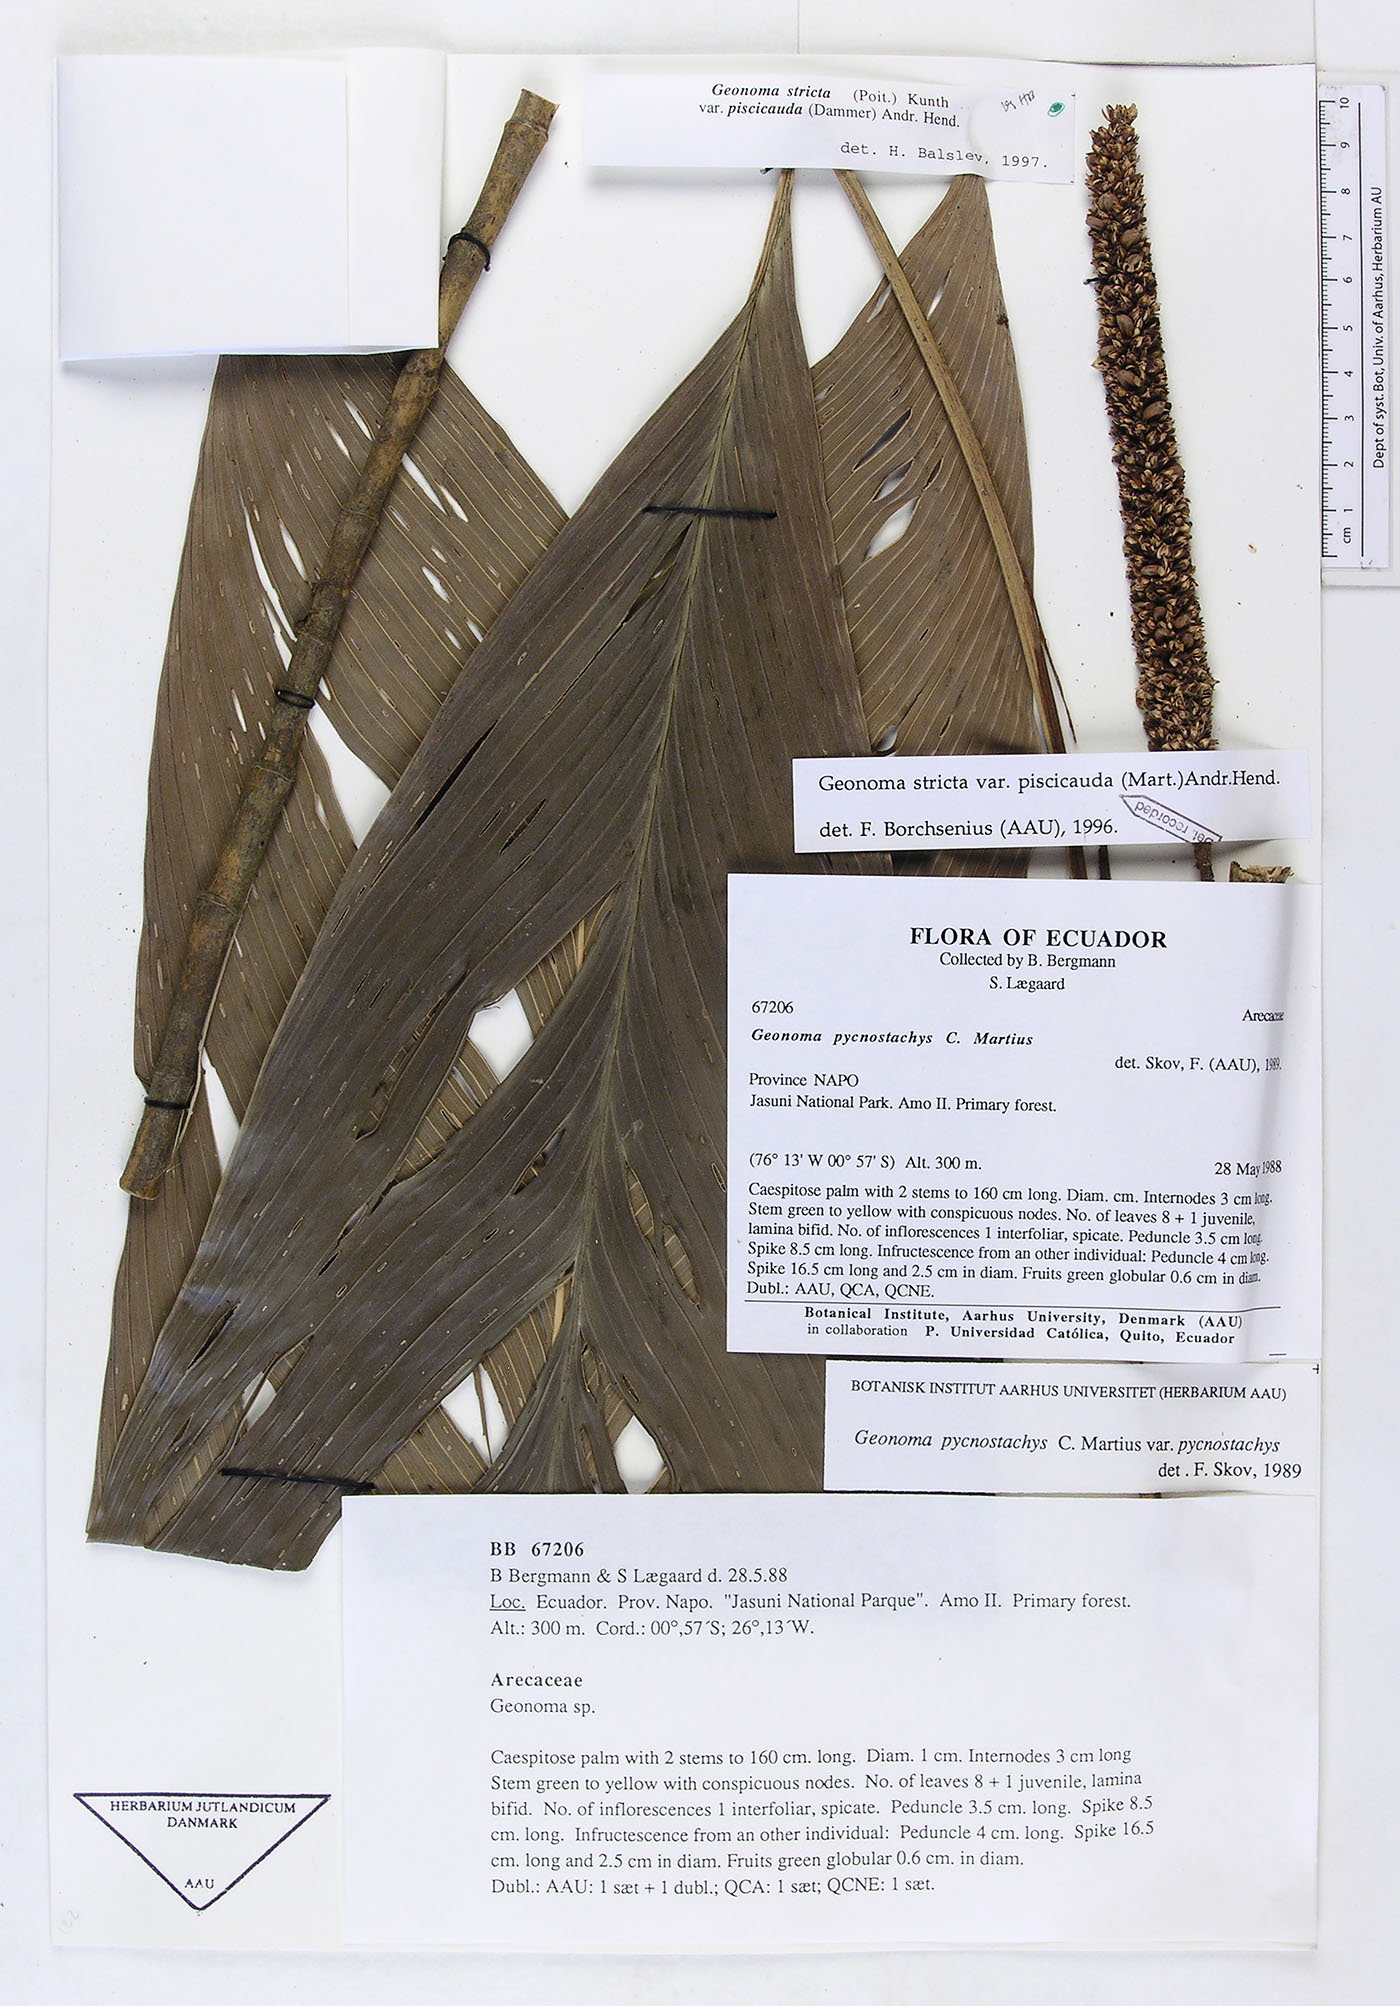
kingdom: Plantae
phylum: Tracheophyta
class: Liliopsida
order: Arecales
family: Arecaceae
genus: Geonoma
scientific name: Geonoma stricta
